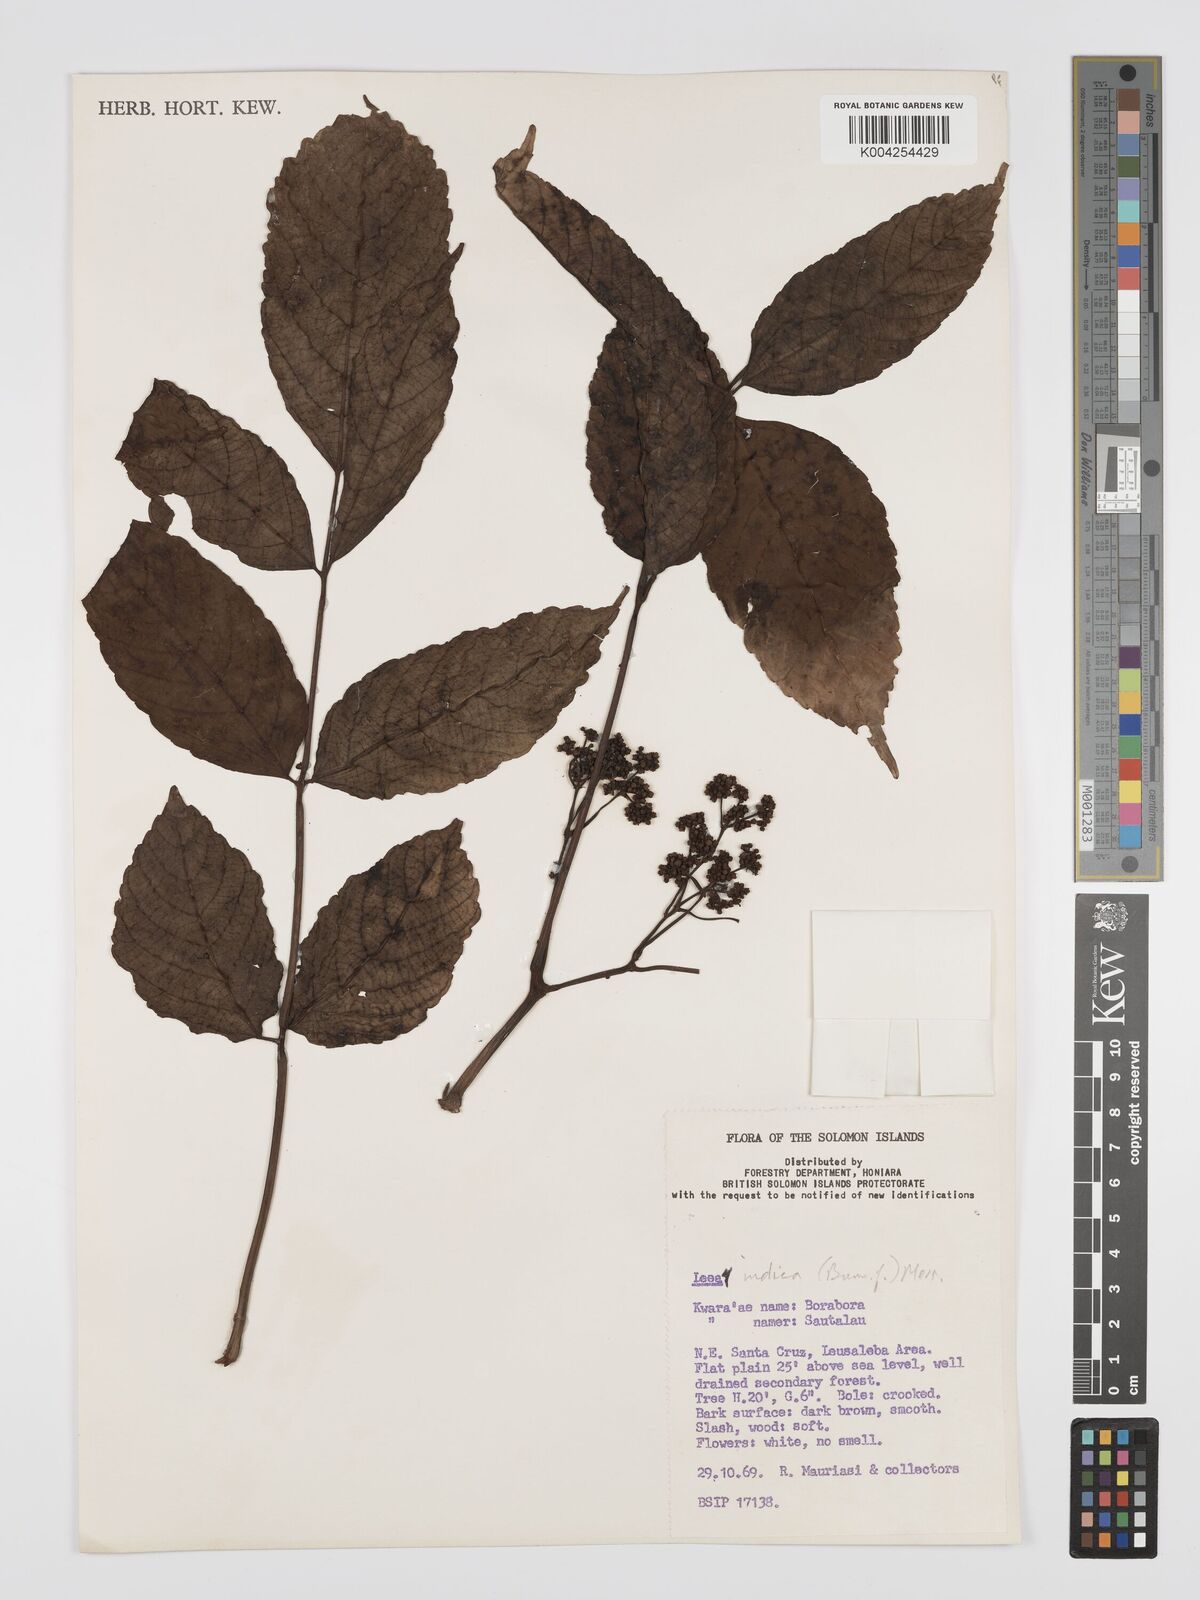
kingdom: Plantae
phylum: Tracheophyta
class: Magnoliopsida
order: Vitales
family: Vitaceae
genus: Leea
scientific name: Leea indica
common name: Bandicoot-berry
